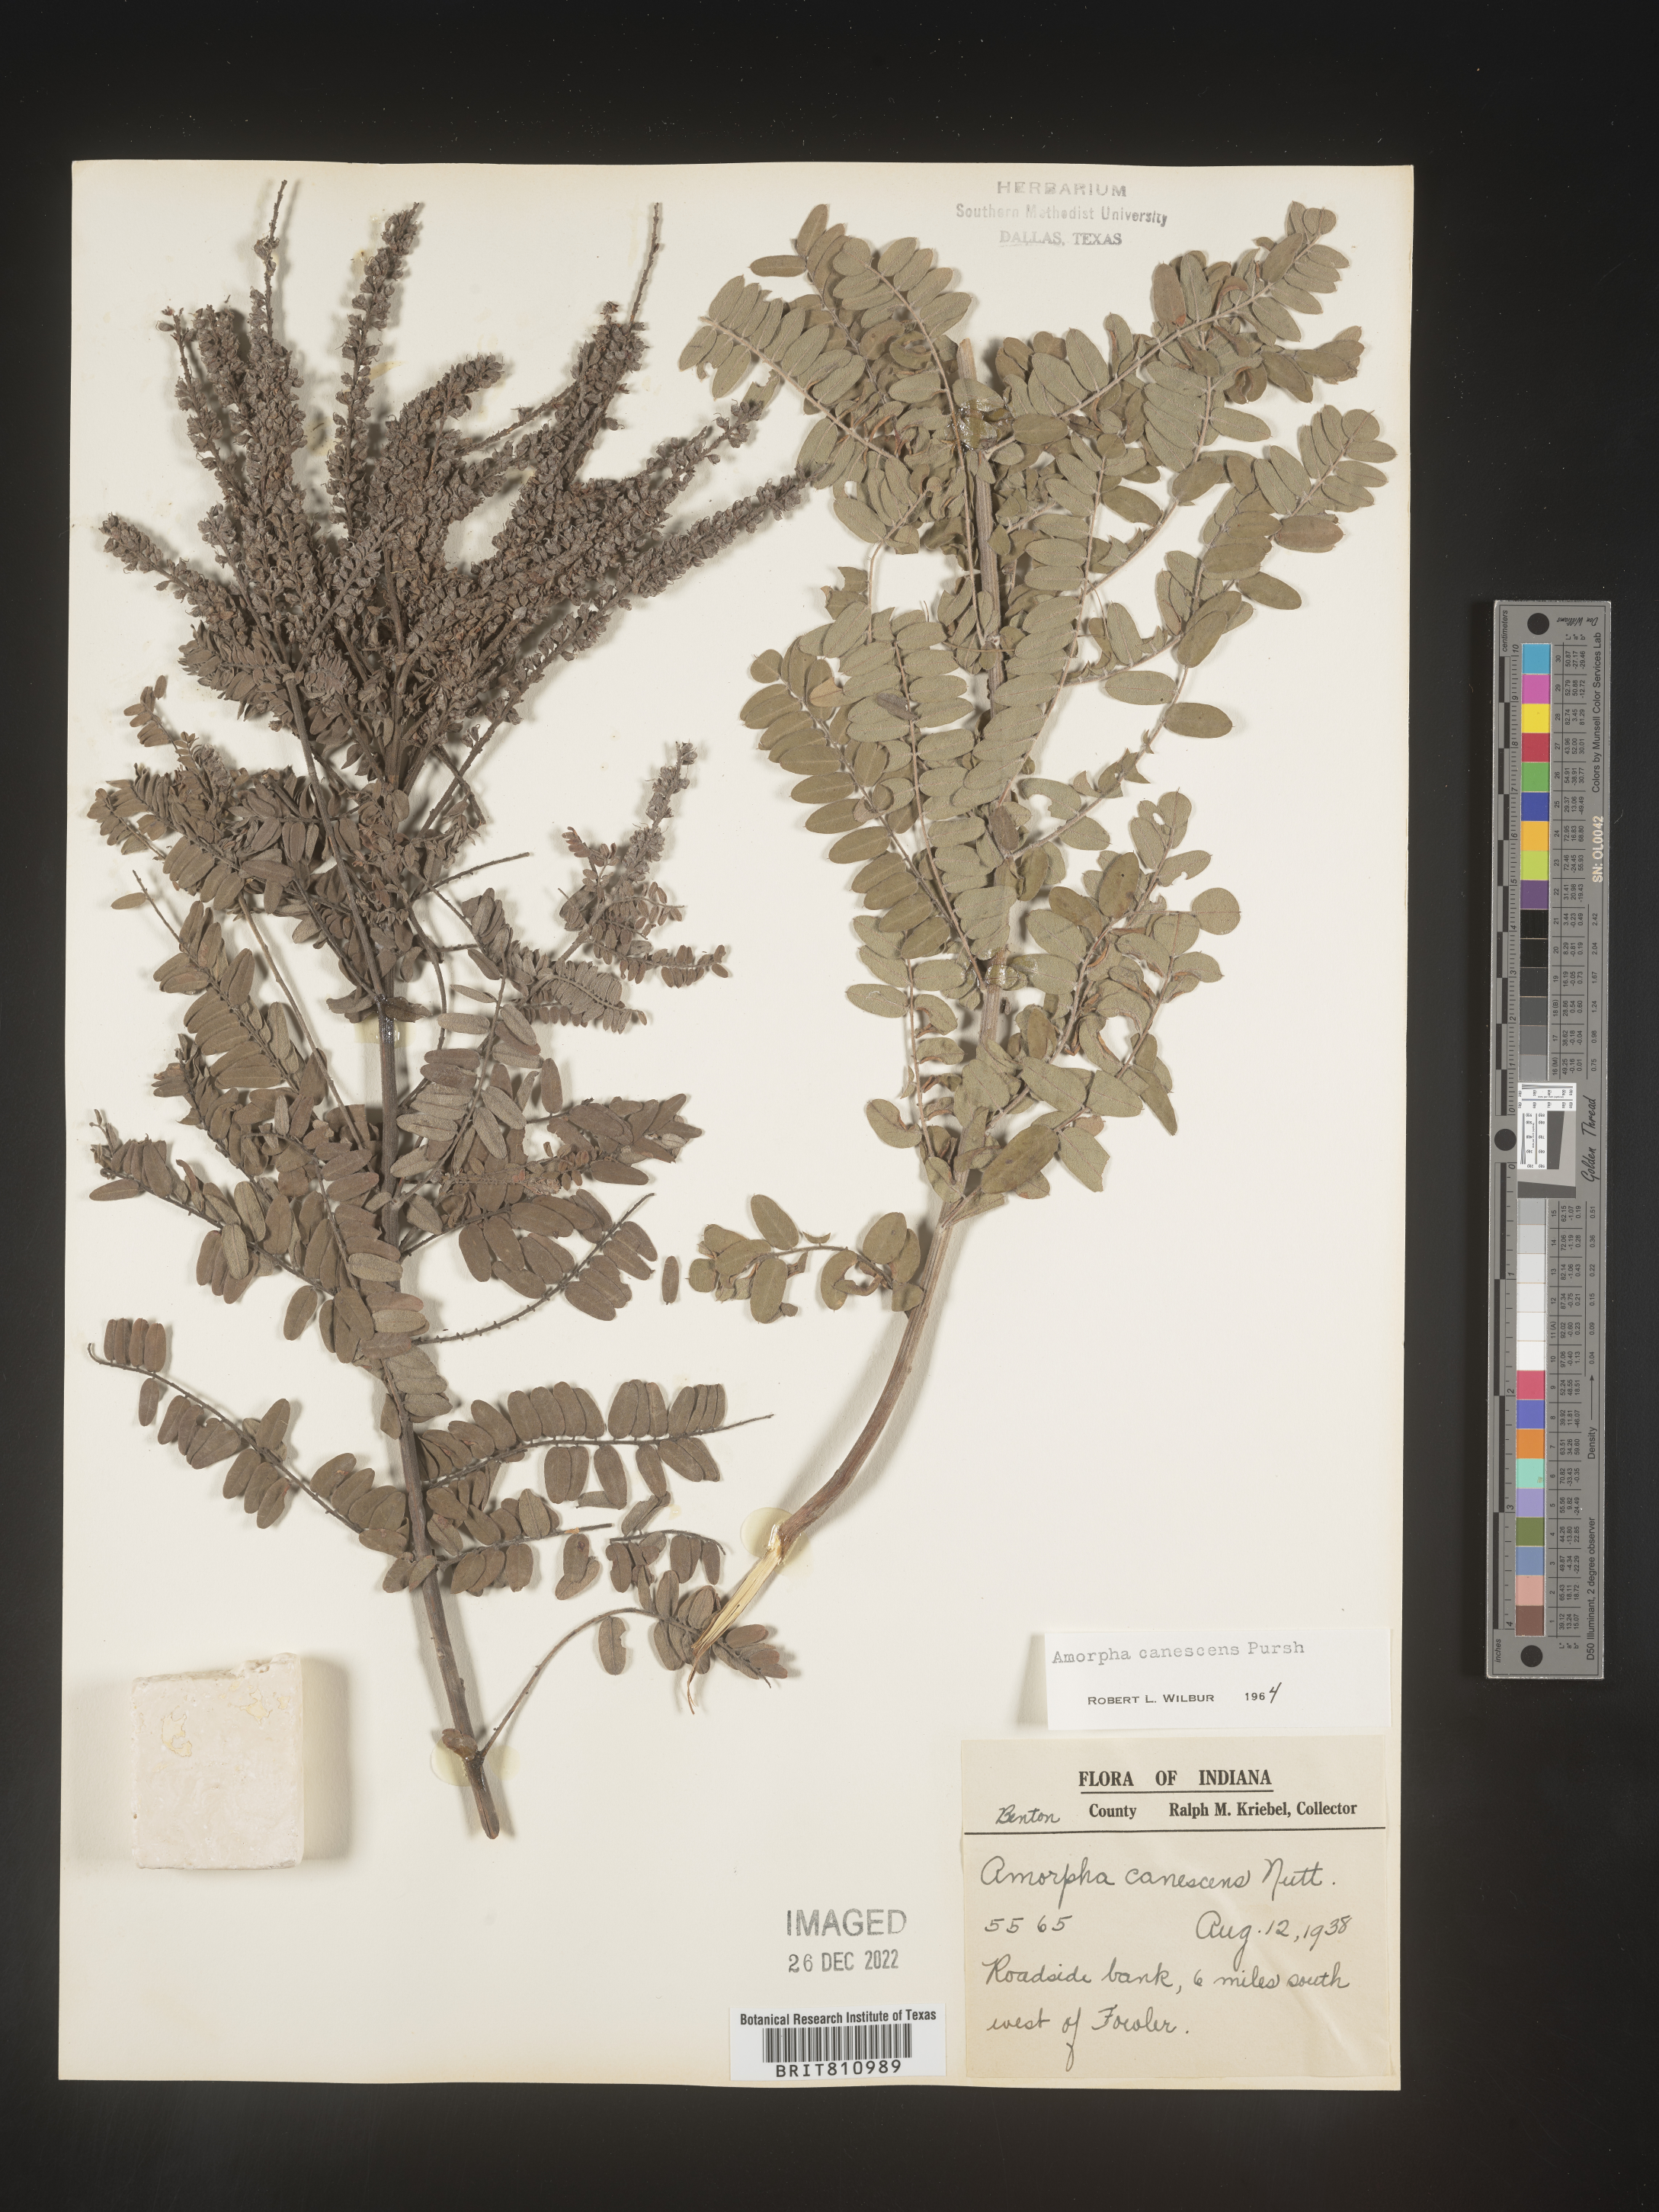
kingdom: Plantae
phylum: Tracheophyta
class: Magnoliopsida
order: Fabales
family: Fabaceae
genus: Amorpha
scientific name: Amorpha canescens
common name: Leadplant
